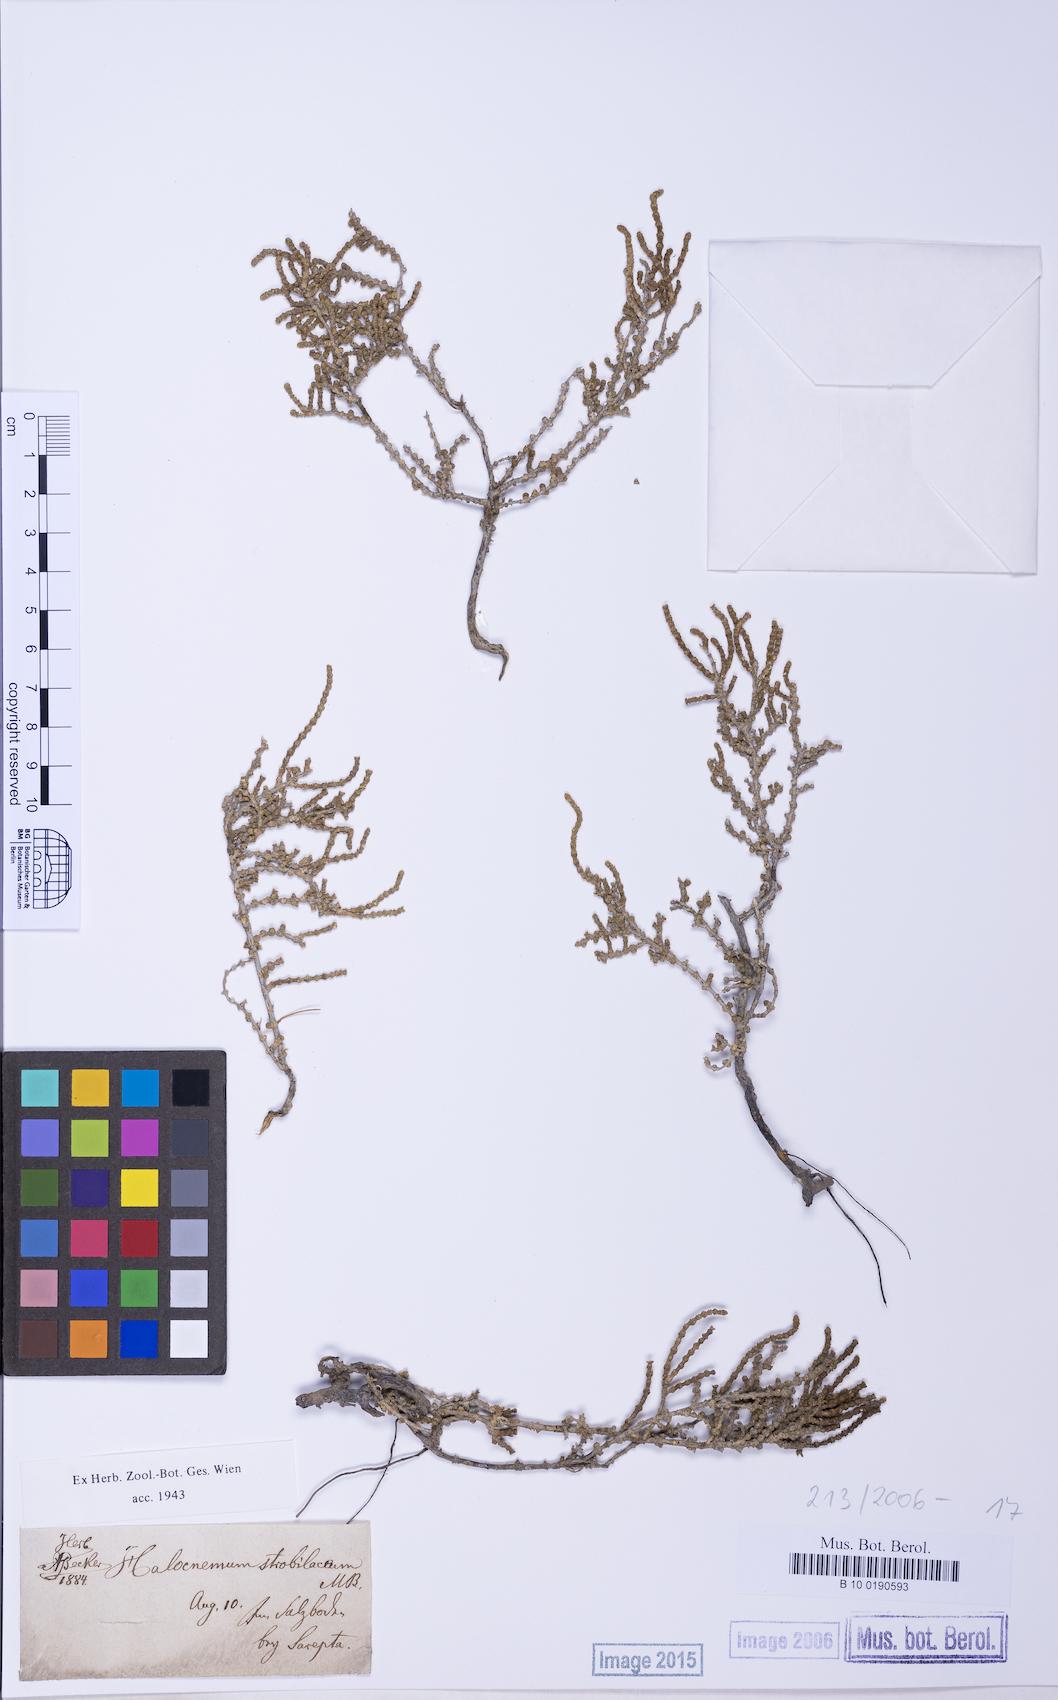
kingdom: Plantae
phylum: Tracheophyta
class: Magnoliopsida
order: Caryophyllales
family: Amaranthaceae
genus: Halocnemum
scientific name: Halocnemum strobilaceum
